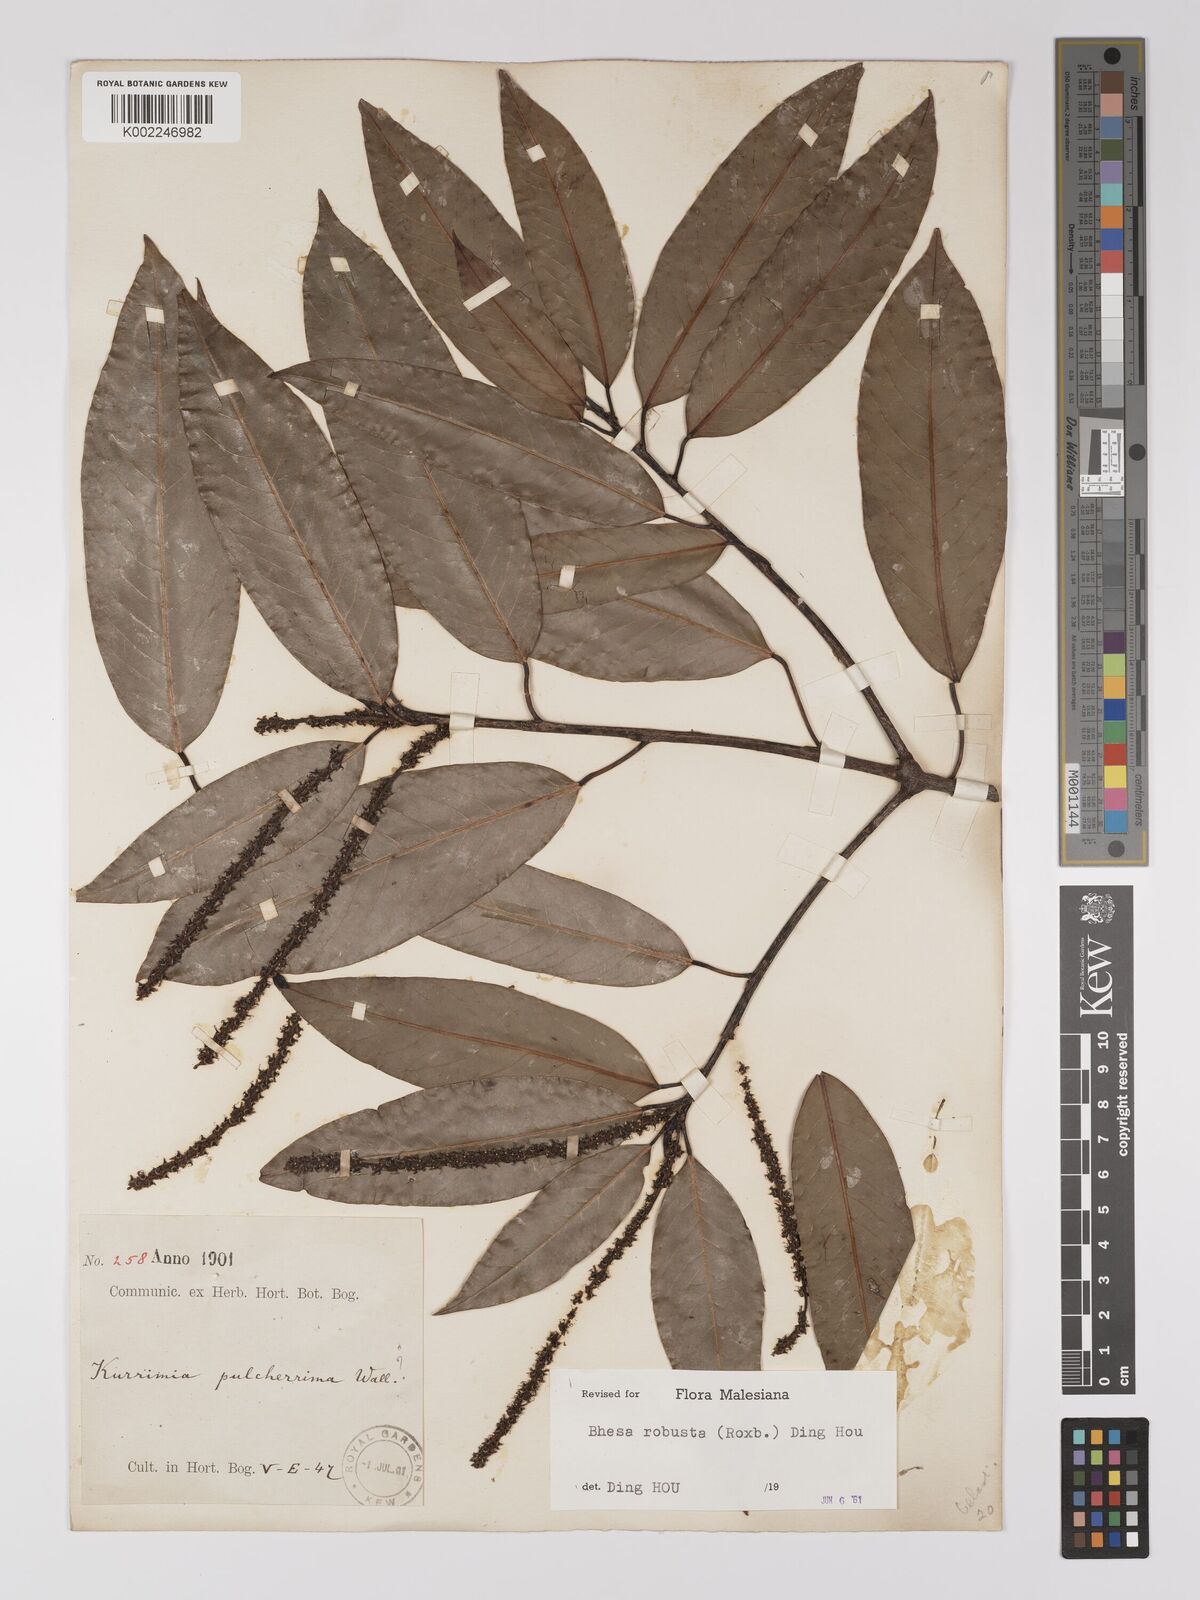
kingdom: Plantae
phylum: Tracheophyta
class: Magnoliopsida
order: Malpighiales
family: Centroplacaceae
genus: Bhesa
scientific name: Bhesa robusta
